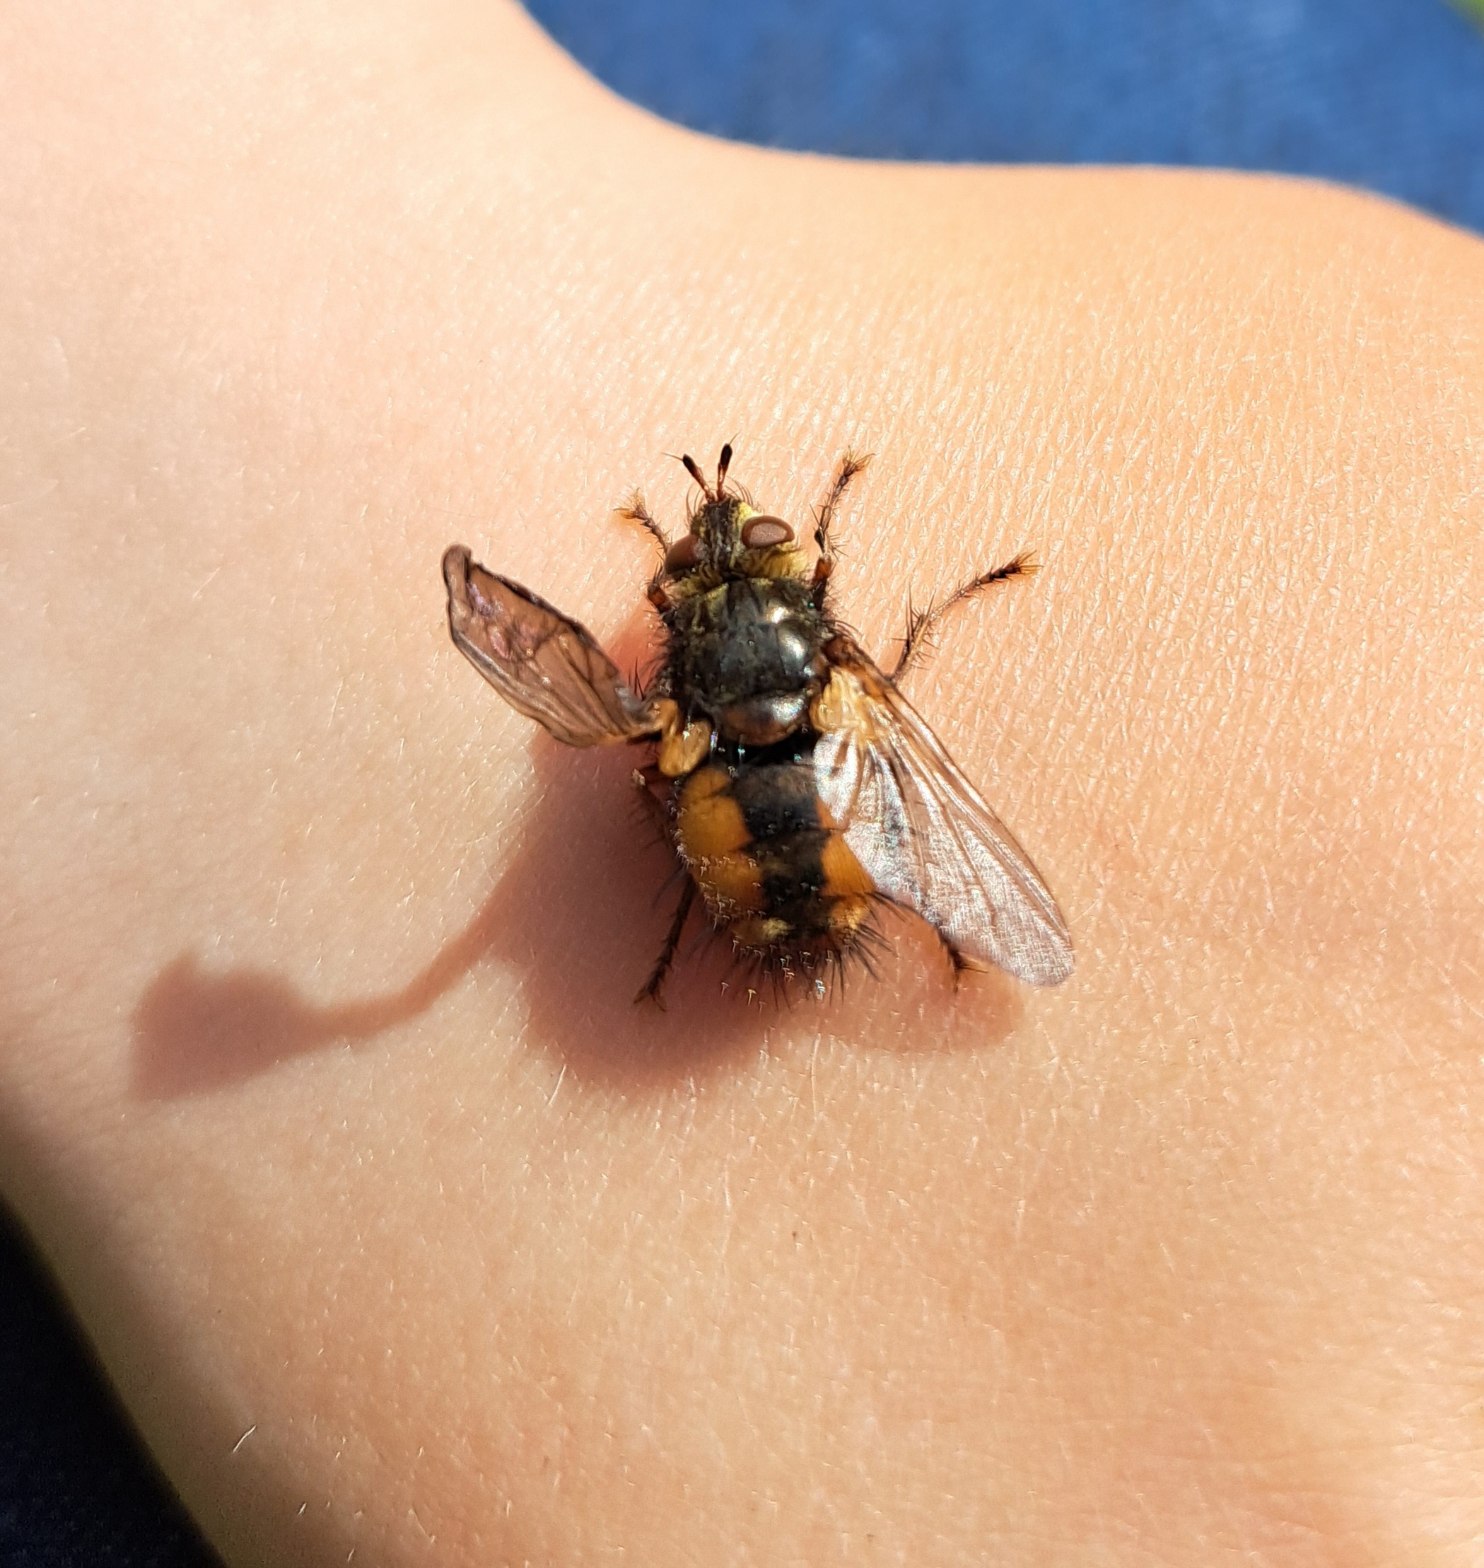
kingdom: Animalia
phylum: Arthropoda
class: Insecta
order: Diptera
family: Tachinidae
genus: Tachina
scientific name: Tachina fera
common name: Mellemfluen oskar
